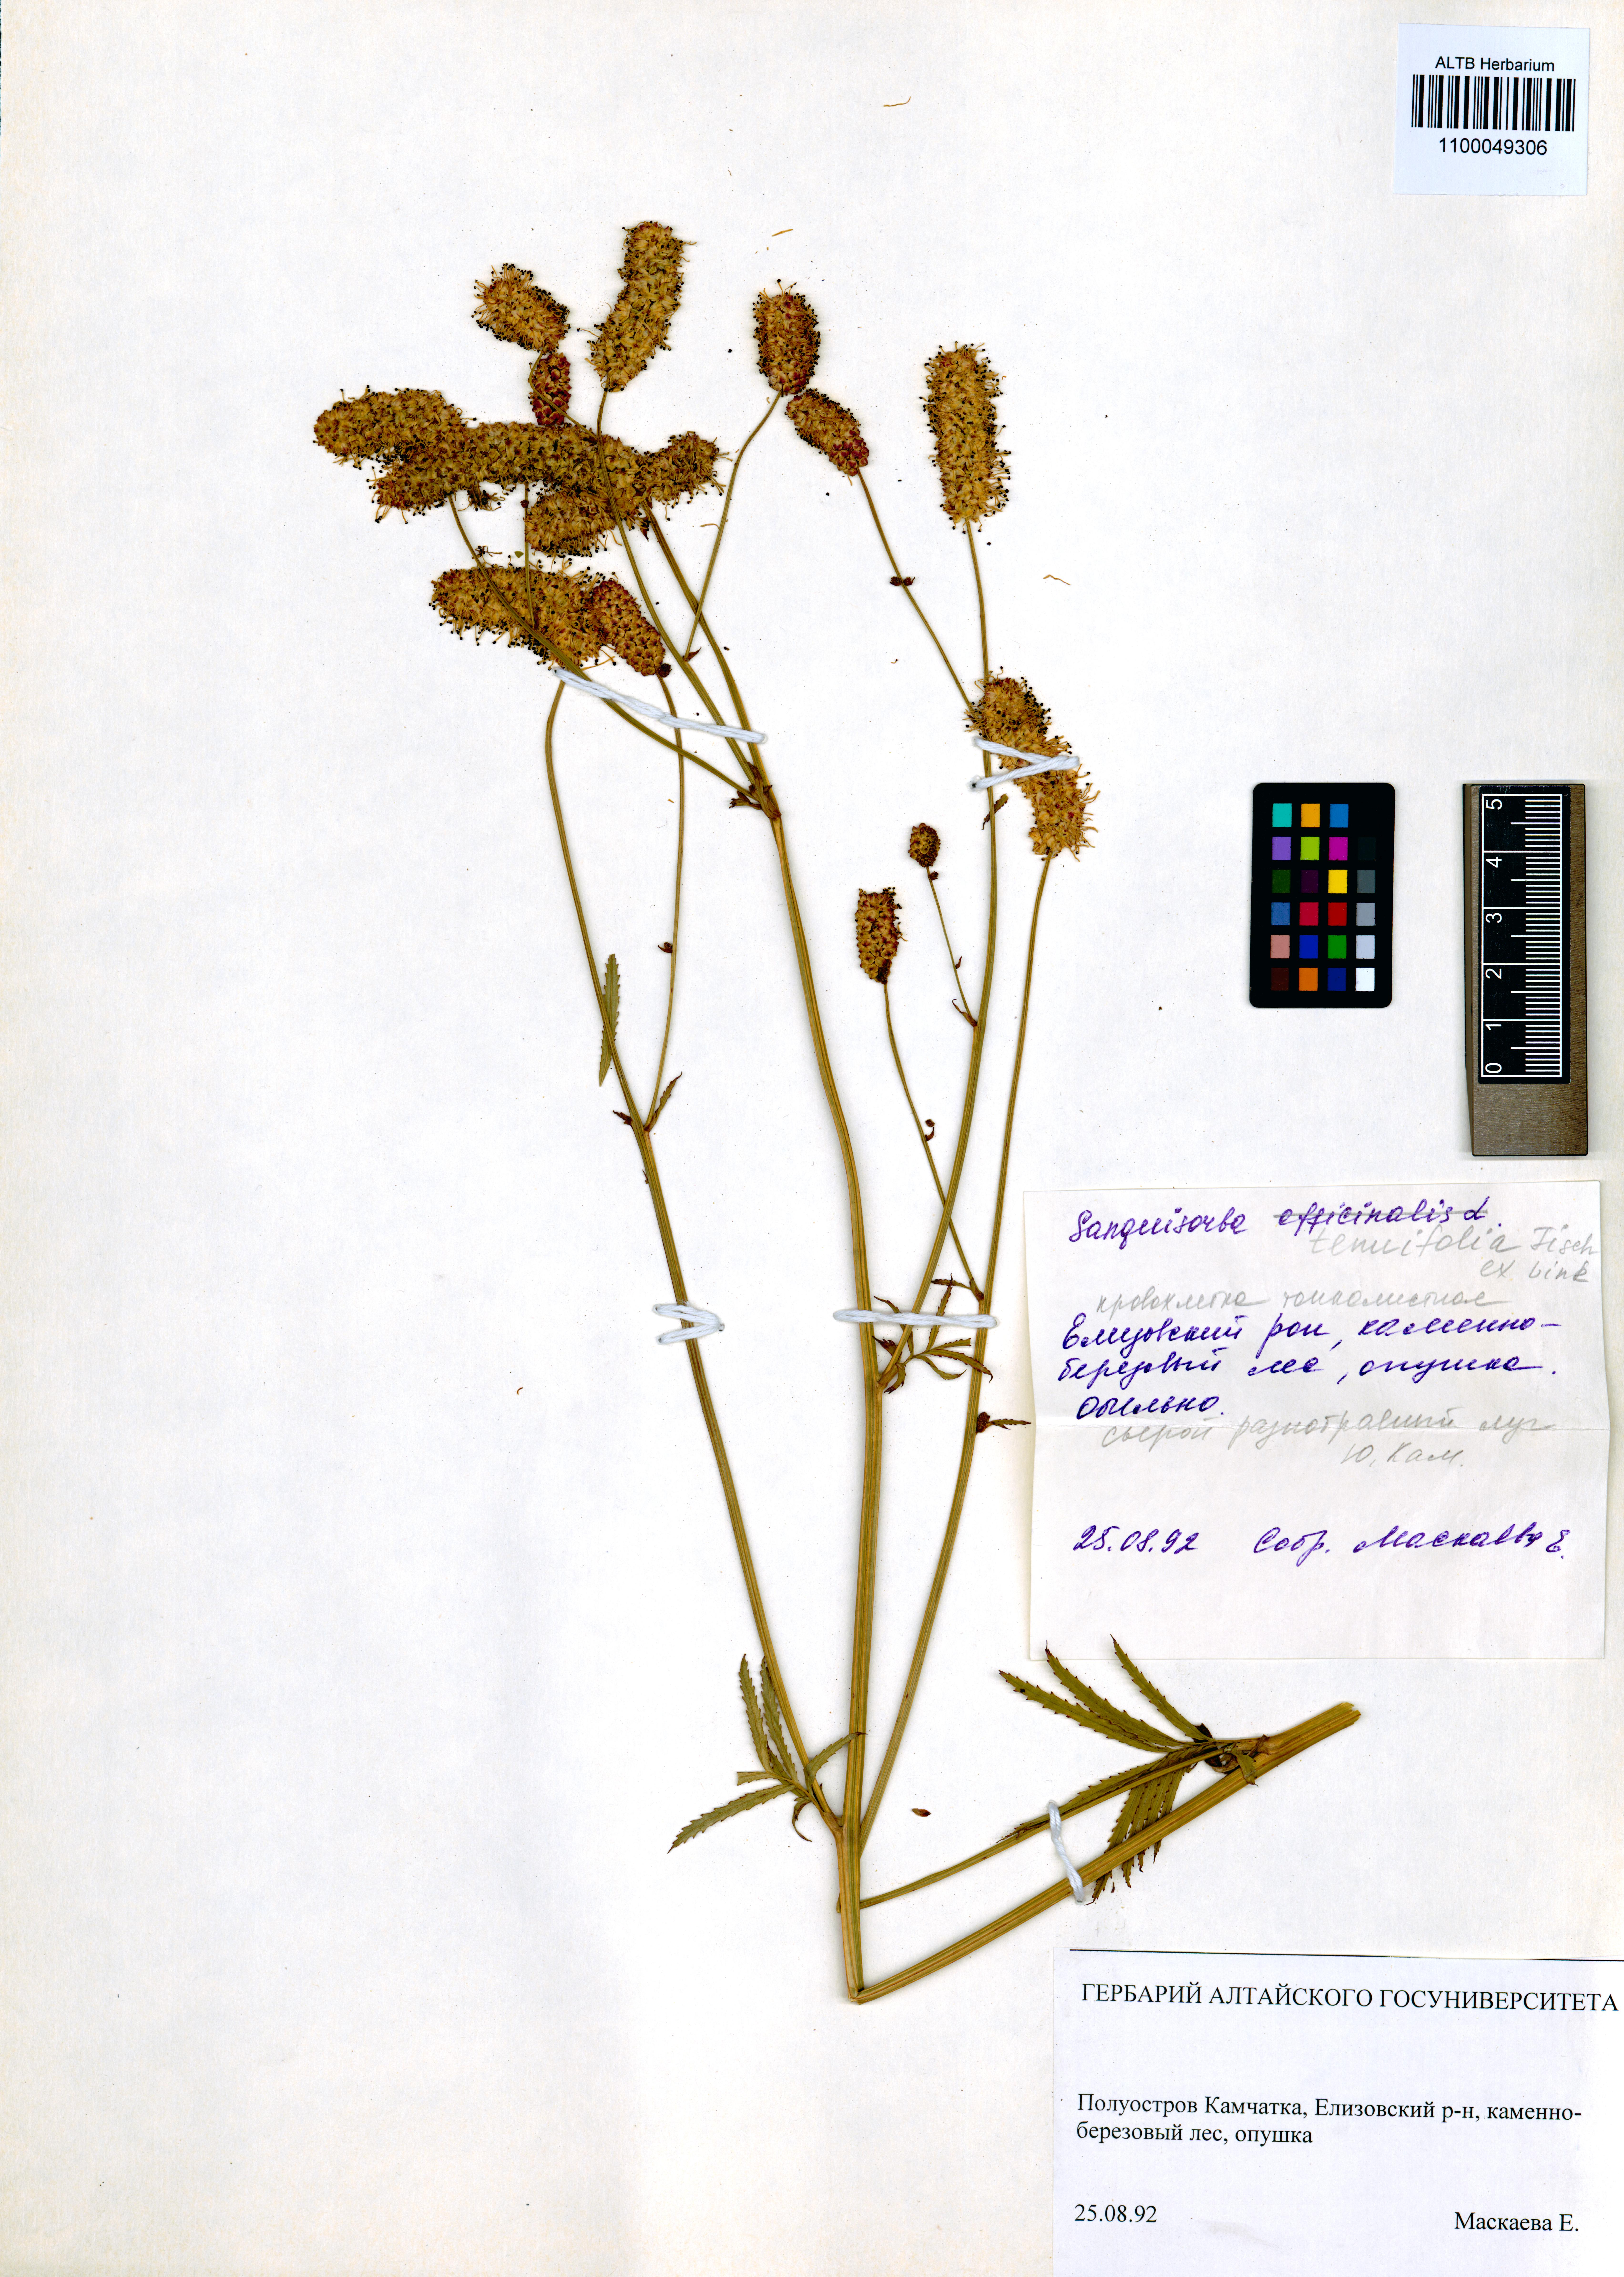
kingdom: Plantae
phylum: Tracheophyta
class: Magnoliopsida
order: Rosales
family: Rosaceae
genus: Poterium
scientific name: Poterium tenuifolium
